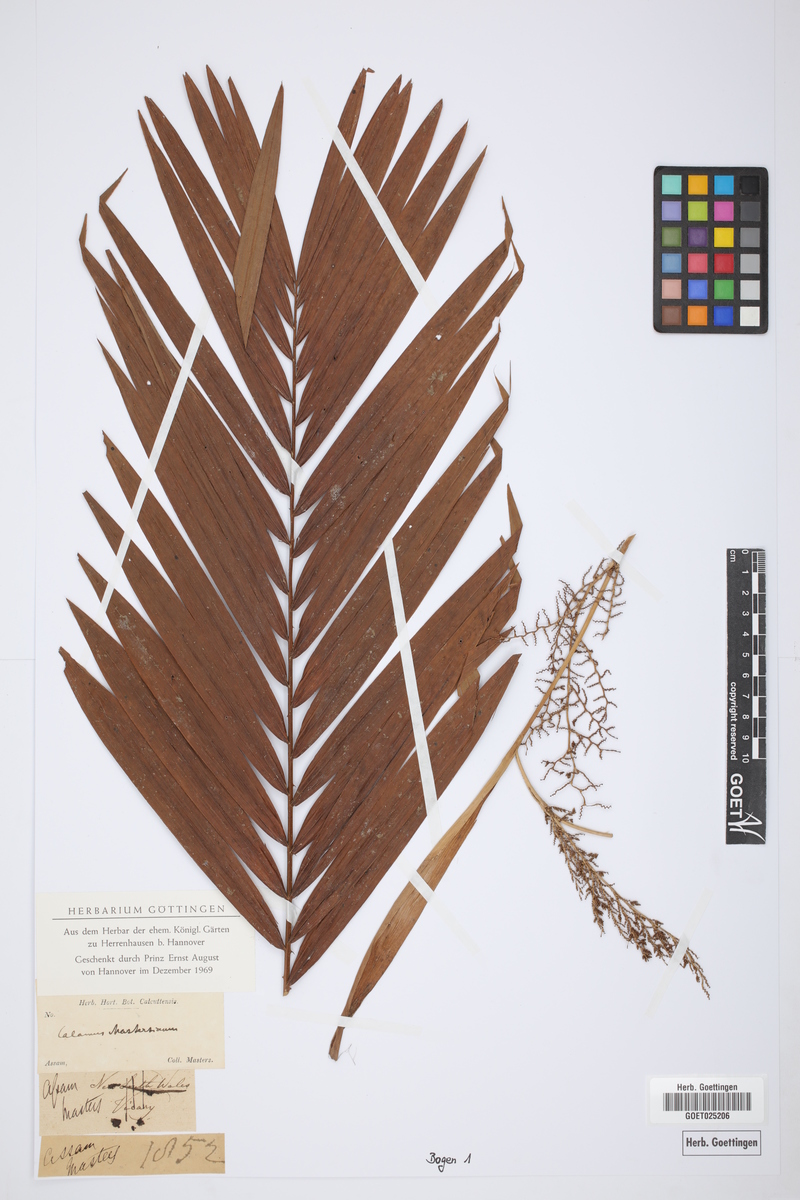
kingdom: Plantae
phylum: Tracheophyta
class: Liliopsida
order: Arecales
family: Arecaceae
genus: Calamus
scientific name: Calamus guruba
